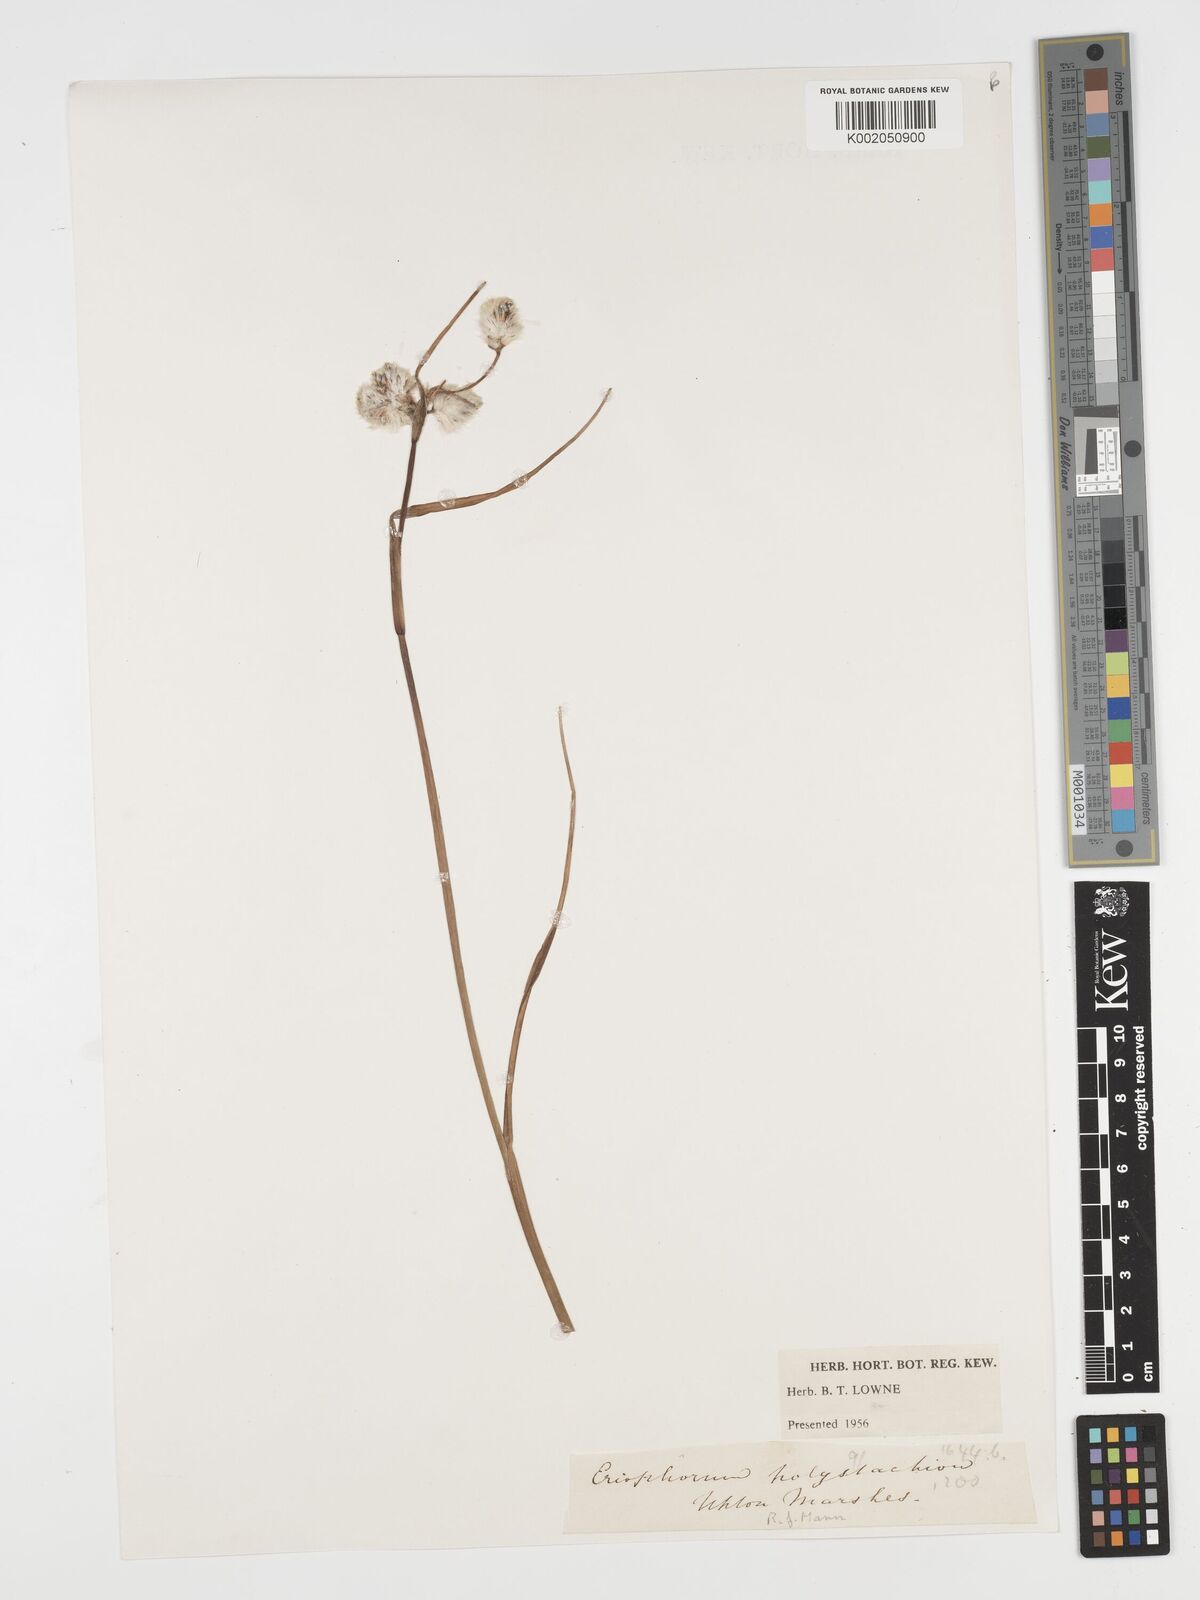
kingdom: Plantae
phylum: Tracheophyta
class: Liliopsida
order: Poales
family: Cyperaceae
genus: Eriophorum
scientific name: Eriophorum angustifolium
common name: Common cottongrass
